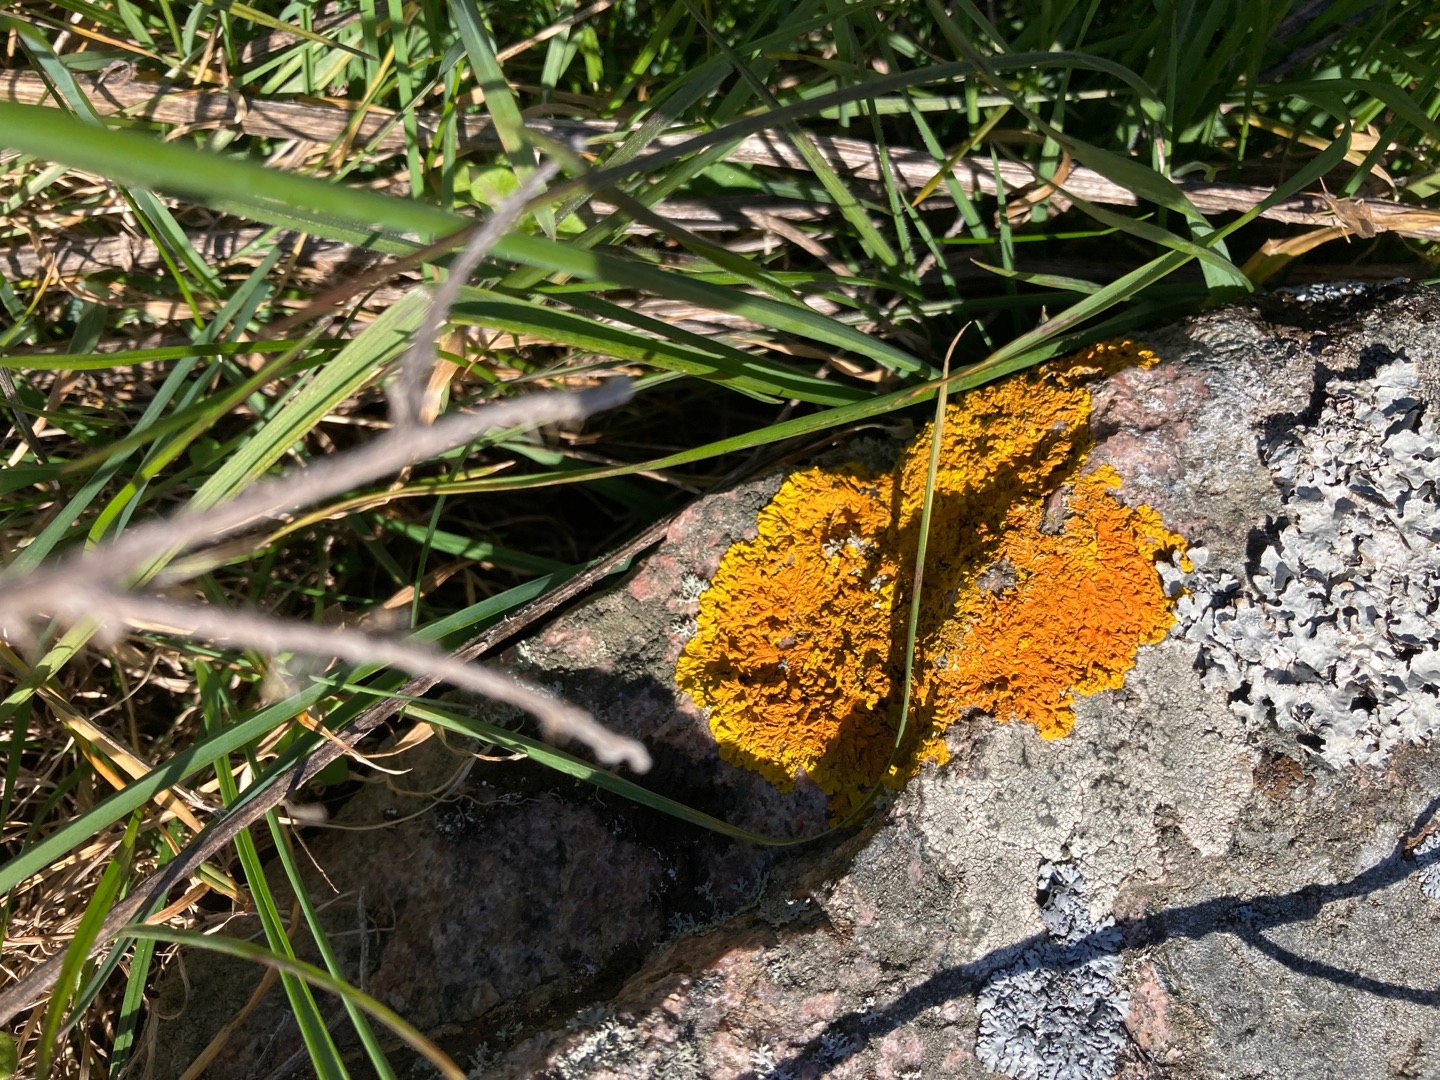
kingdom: Fungi
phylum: Ascomycota
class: Lecanoromycetes
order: Teloschistales
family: Teloschistaceae
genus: Xanthoria
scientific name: Xanthoria parietina
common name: Almindelig væggelav
